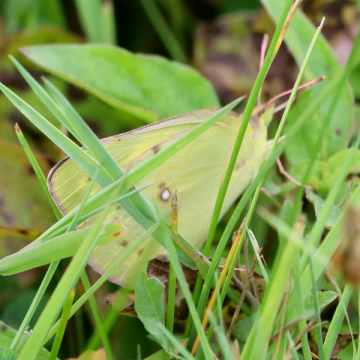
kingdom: Animalia
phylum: Arthropoda
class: Insecta
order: Lepidoptera
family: Pieridae
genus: Colias
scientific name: Colias philodice
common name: Clouded Sulphur
